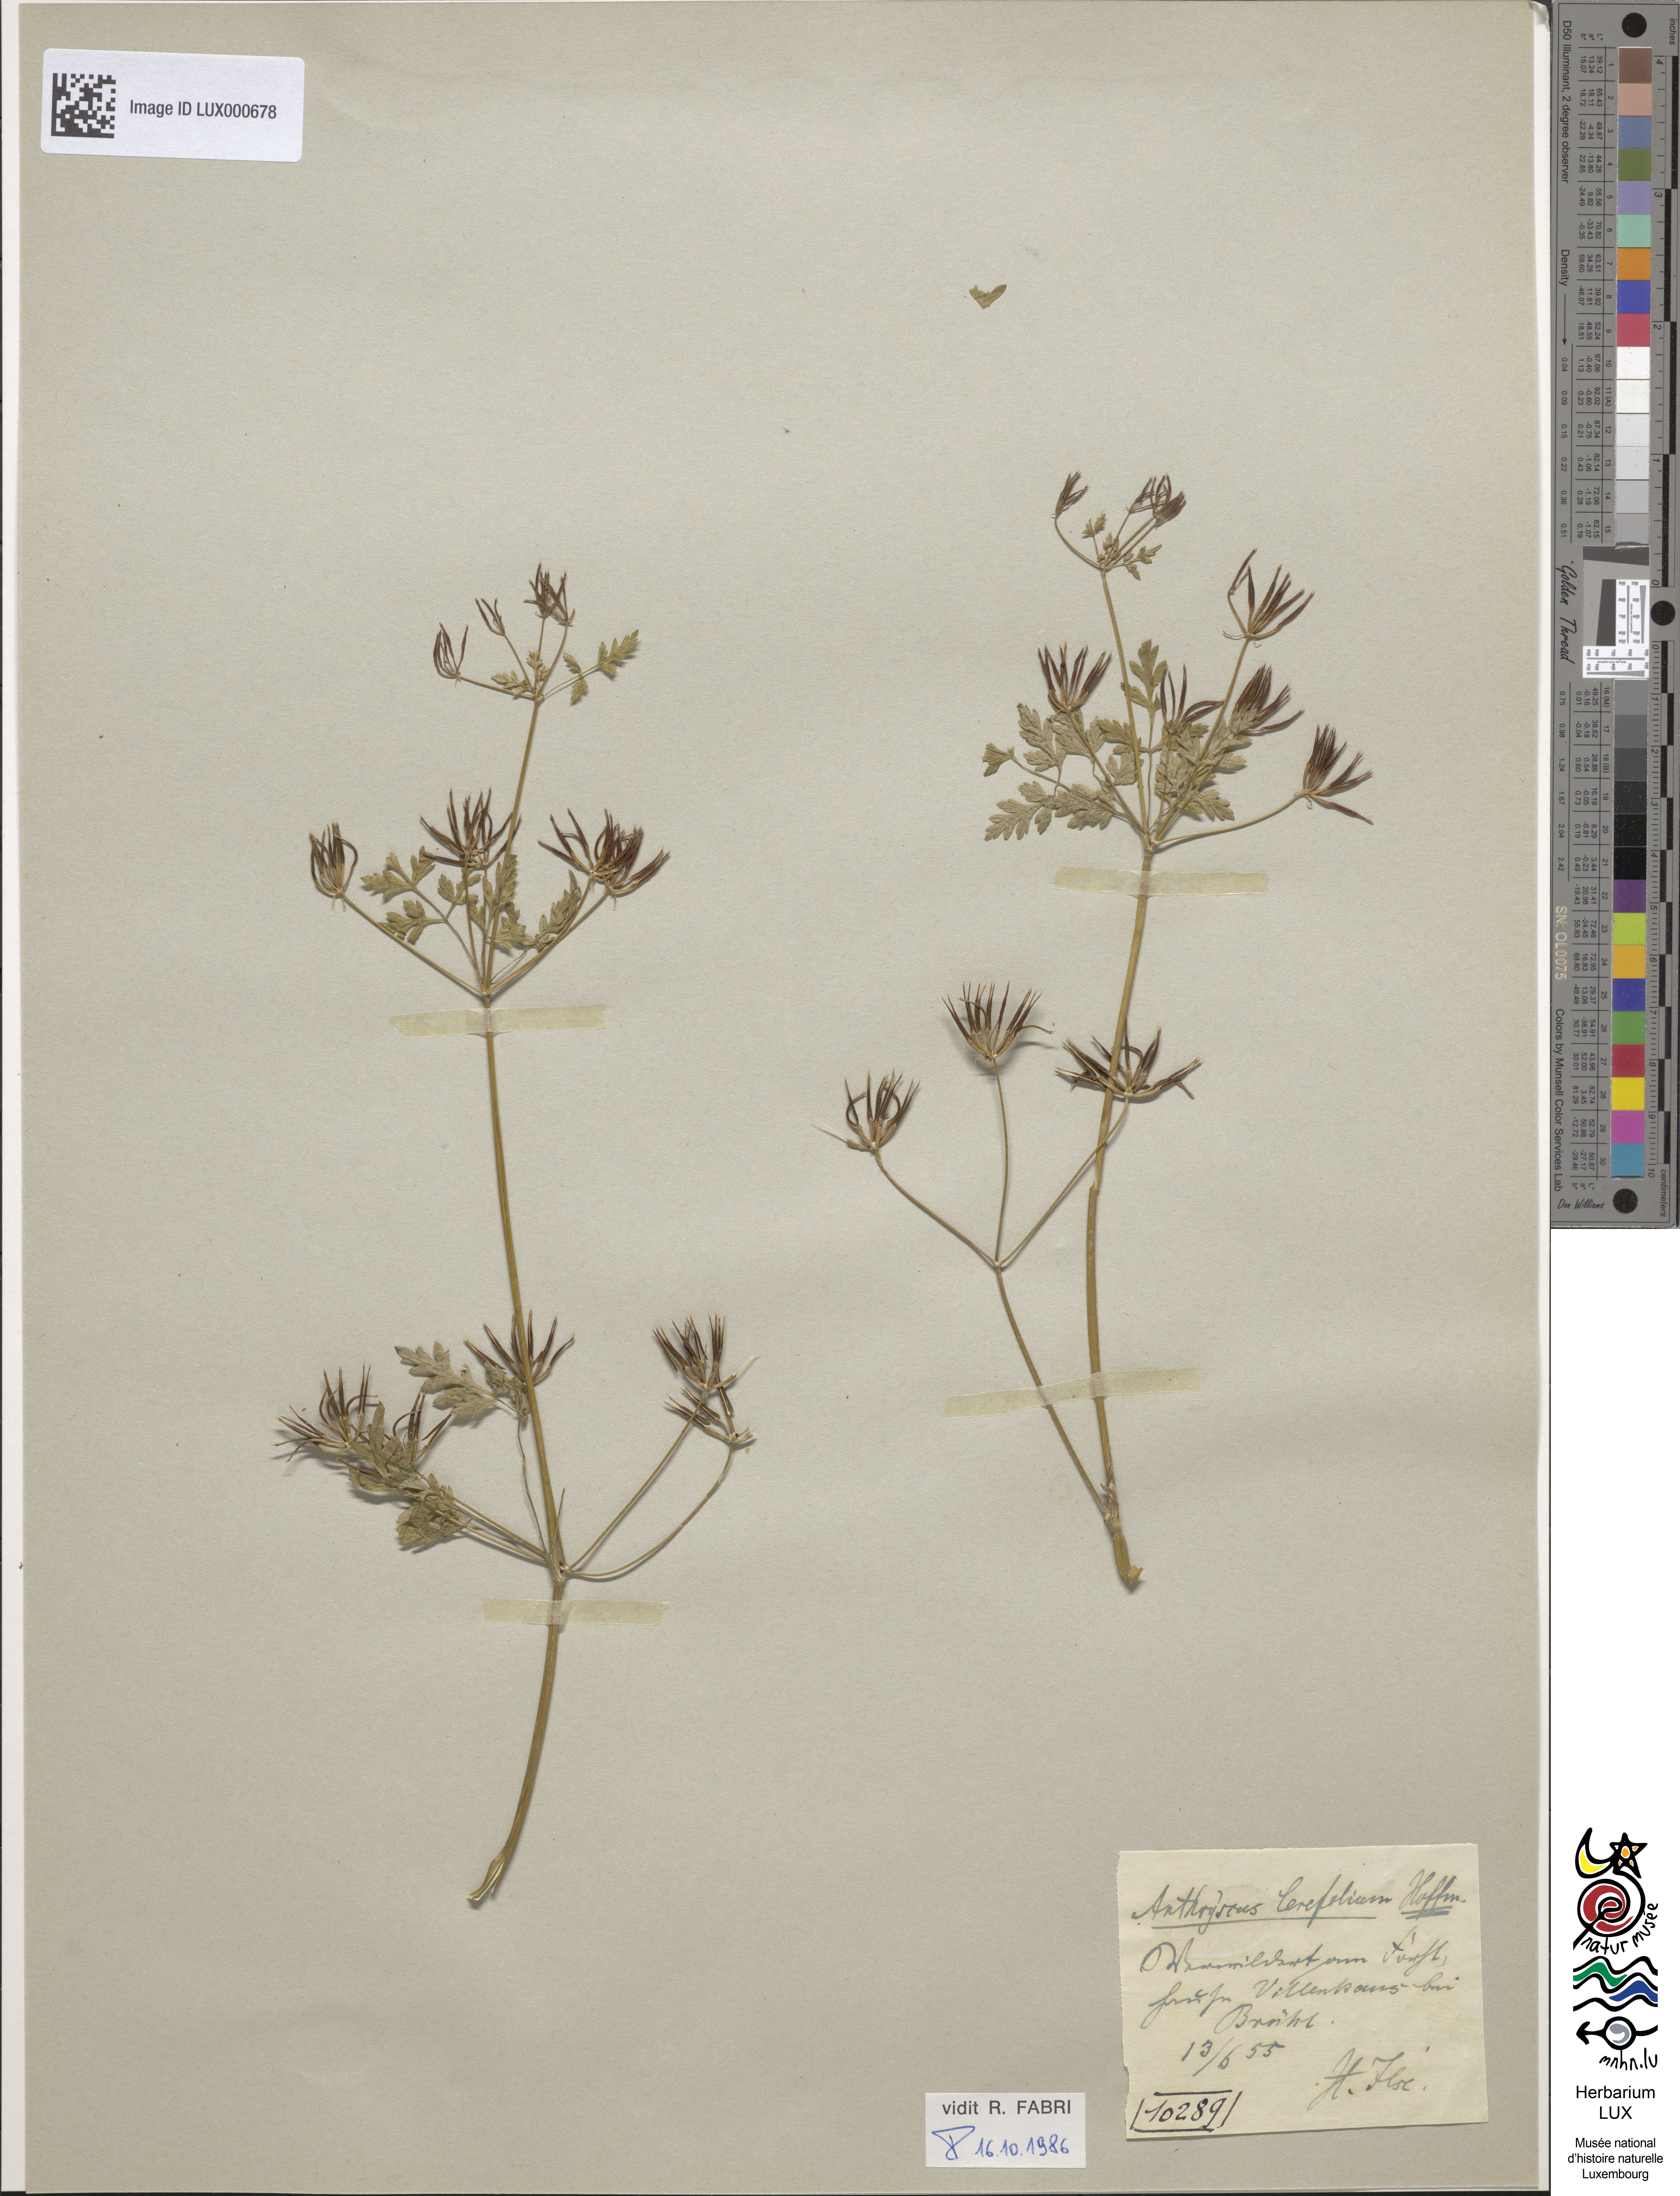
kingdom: Plantae
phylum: Tracheophyta
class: Magnoliopsida
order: Apiales
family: Apiaceae
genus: Anthriscus
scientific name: Anthriscus cerefolium
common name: Garden chervil
